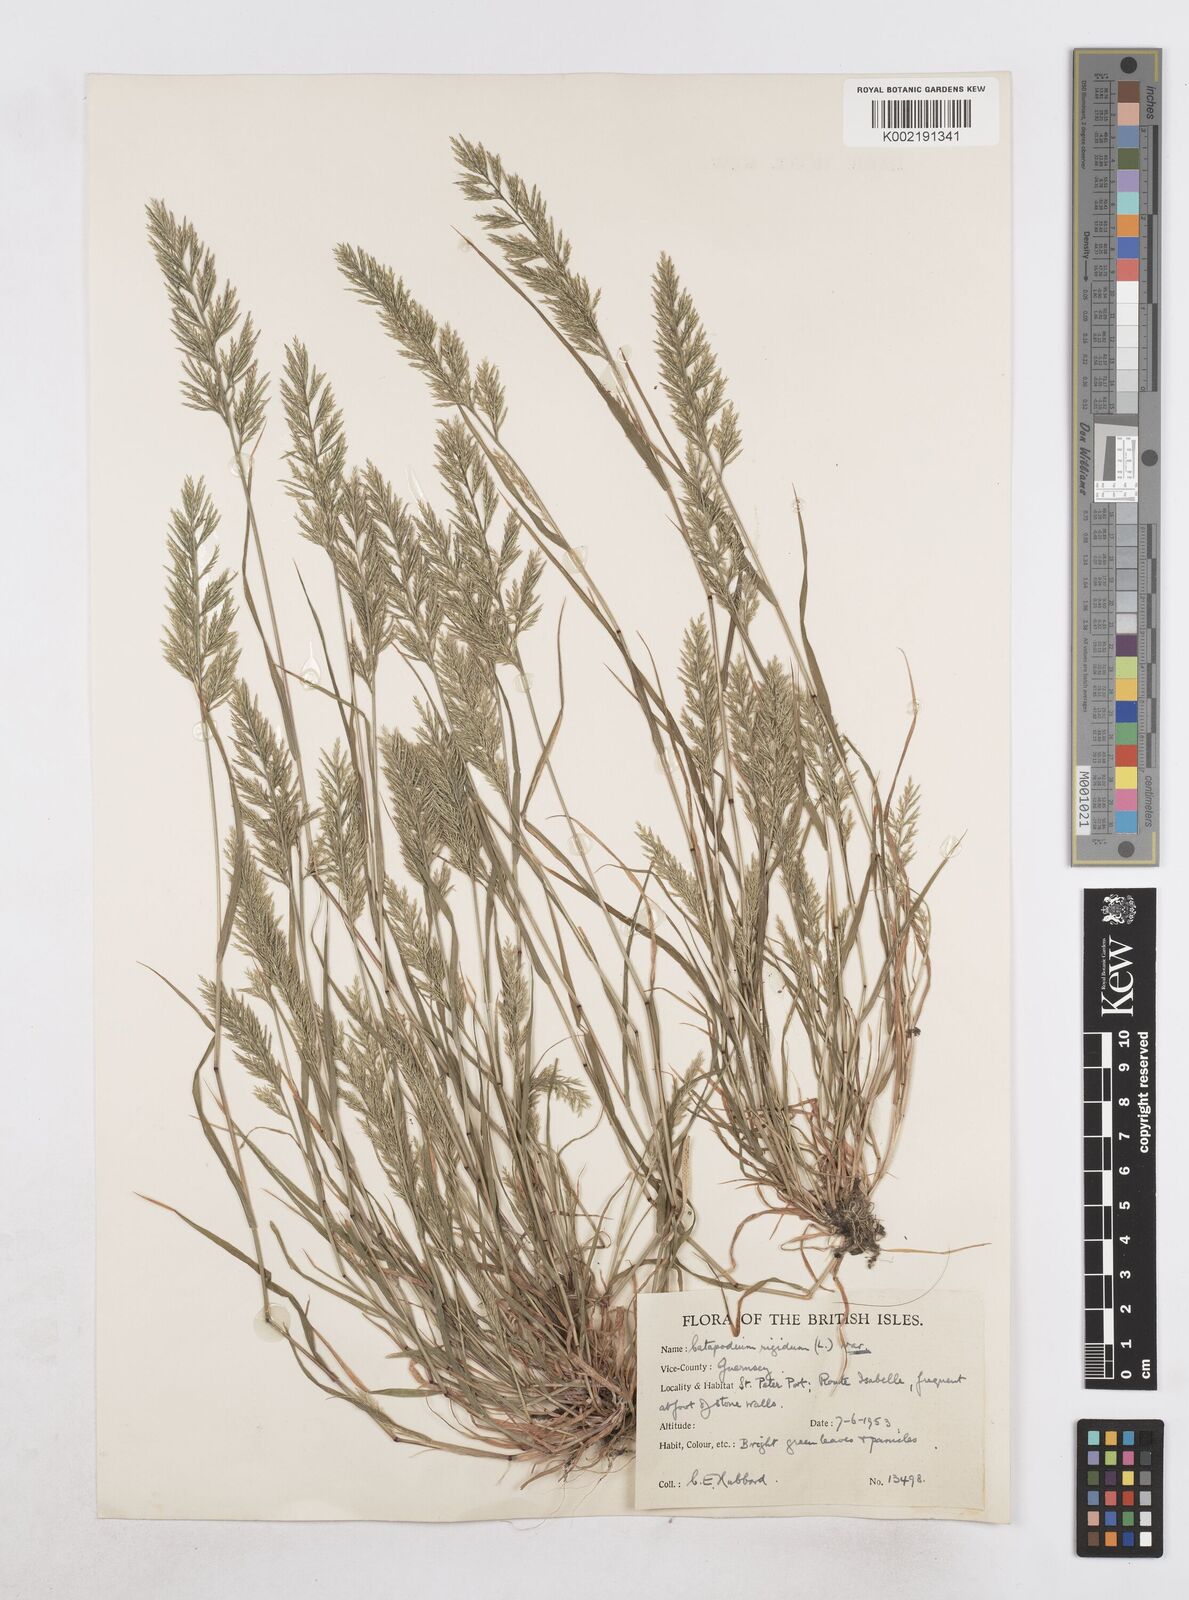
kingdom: Plantae
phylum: Tracheophyta
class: Liliopsida
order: Poales
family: Poaceae
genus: Catapodium
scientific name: Catapodium rigidum
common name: Fern-grass
